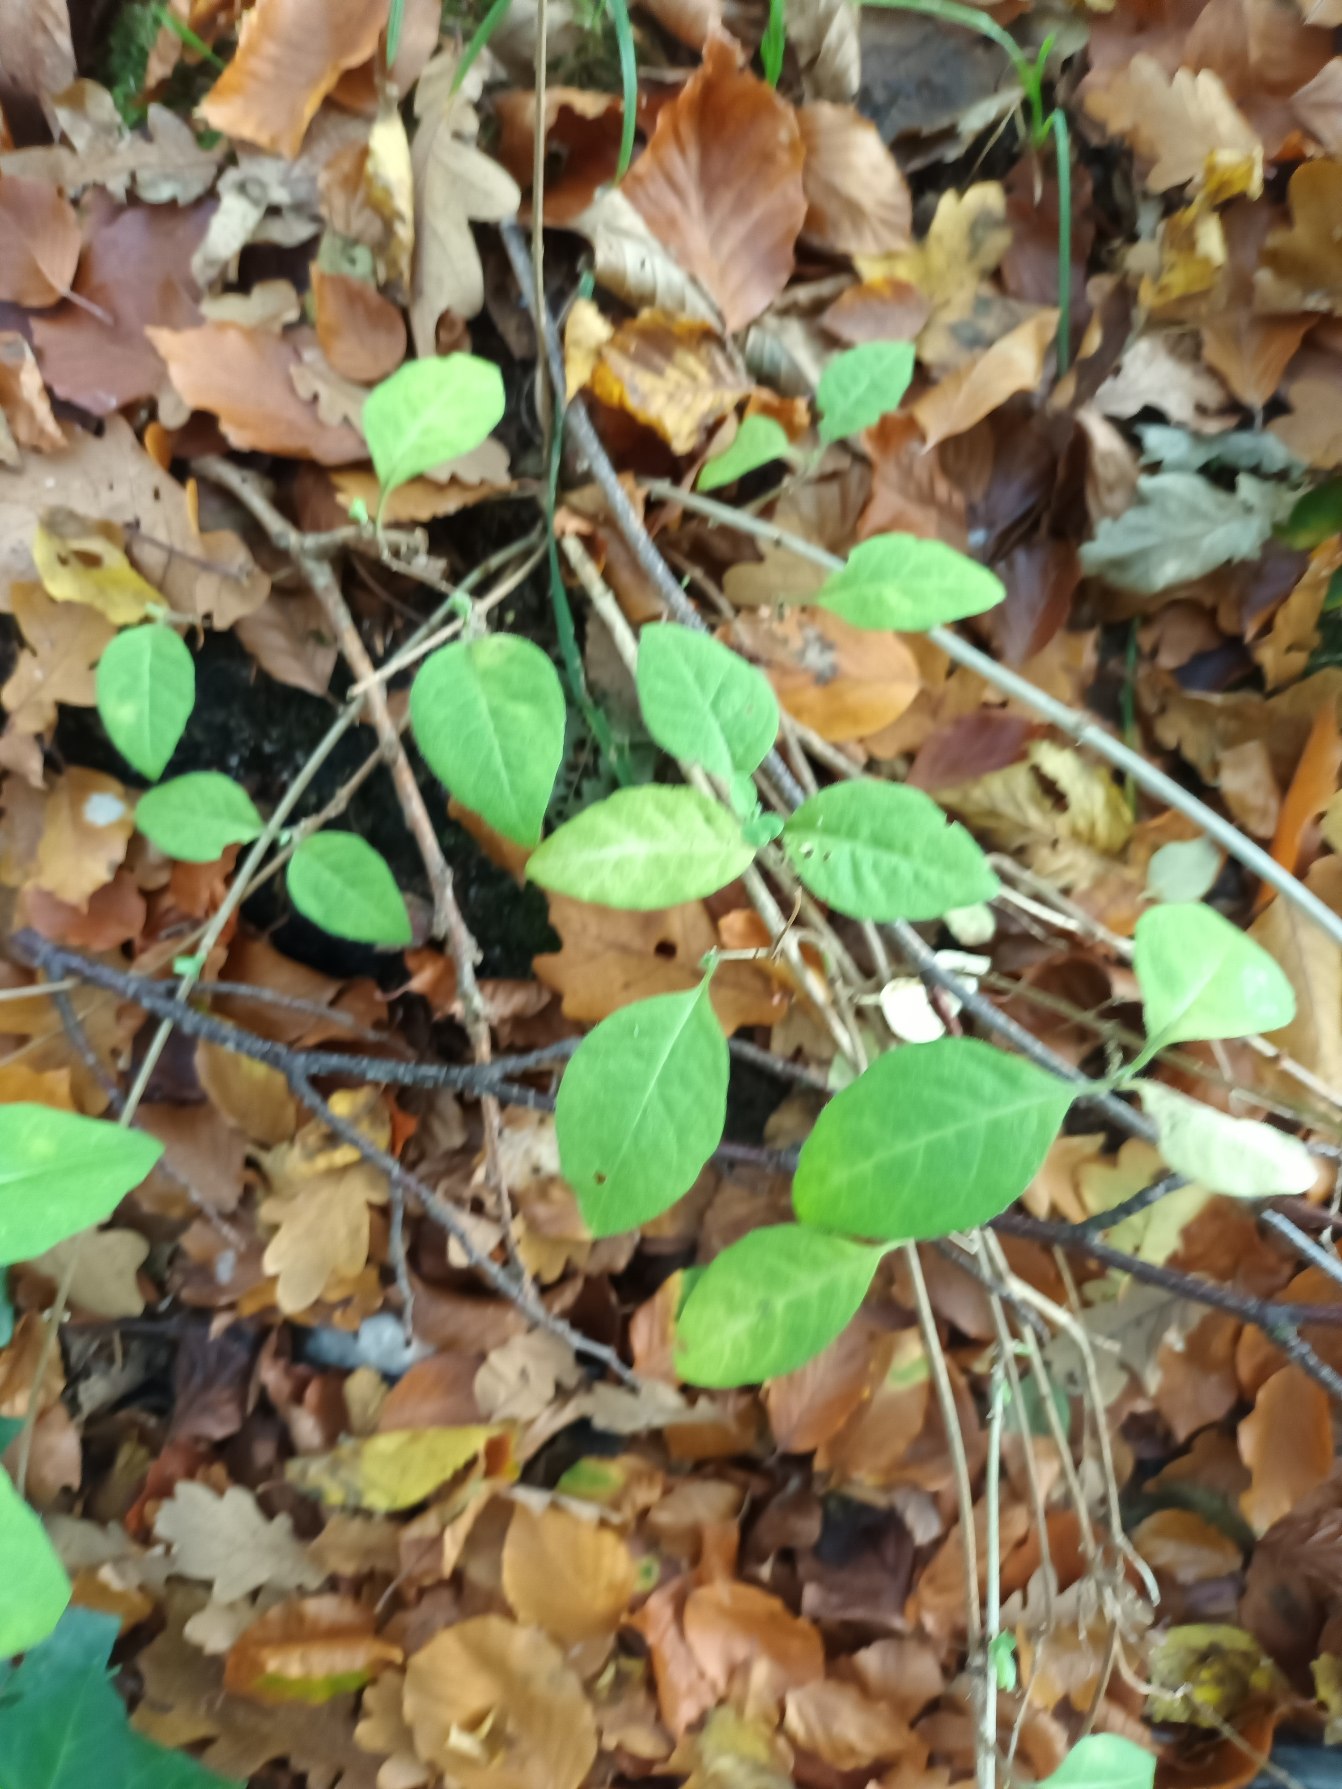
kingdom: Plantae
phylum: Tracheophyta
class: Magnoliopsida
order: Dipsacales
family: Caprifoliaceae
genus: Lonicera
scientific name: Lonicera periclymenum
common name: Almindelig gedeblad
